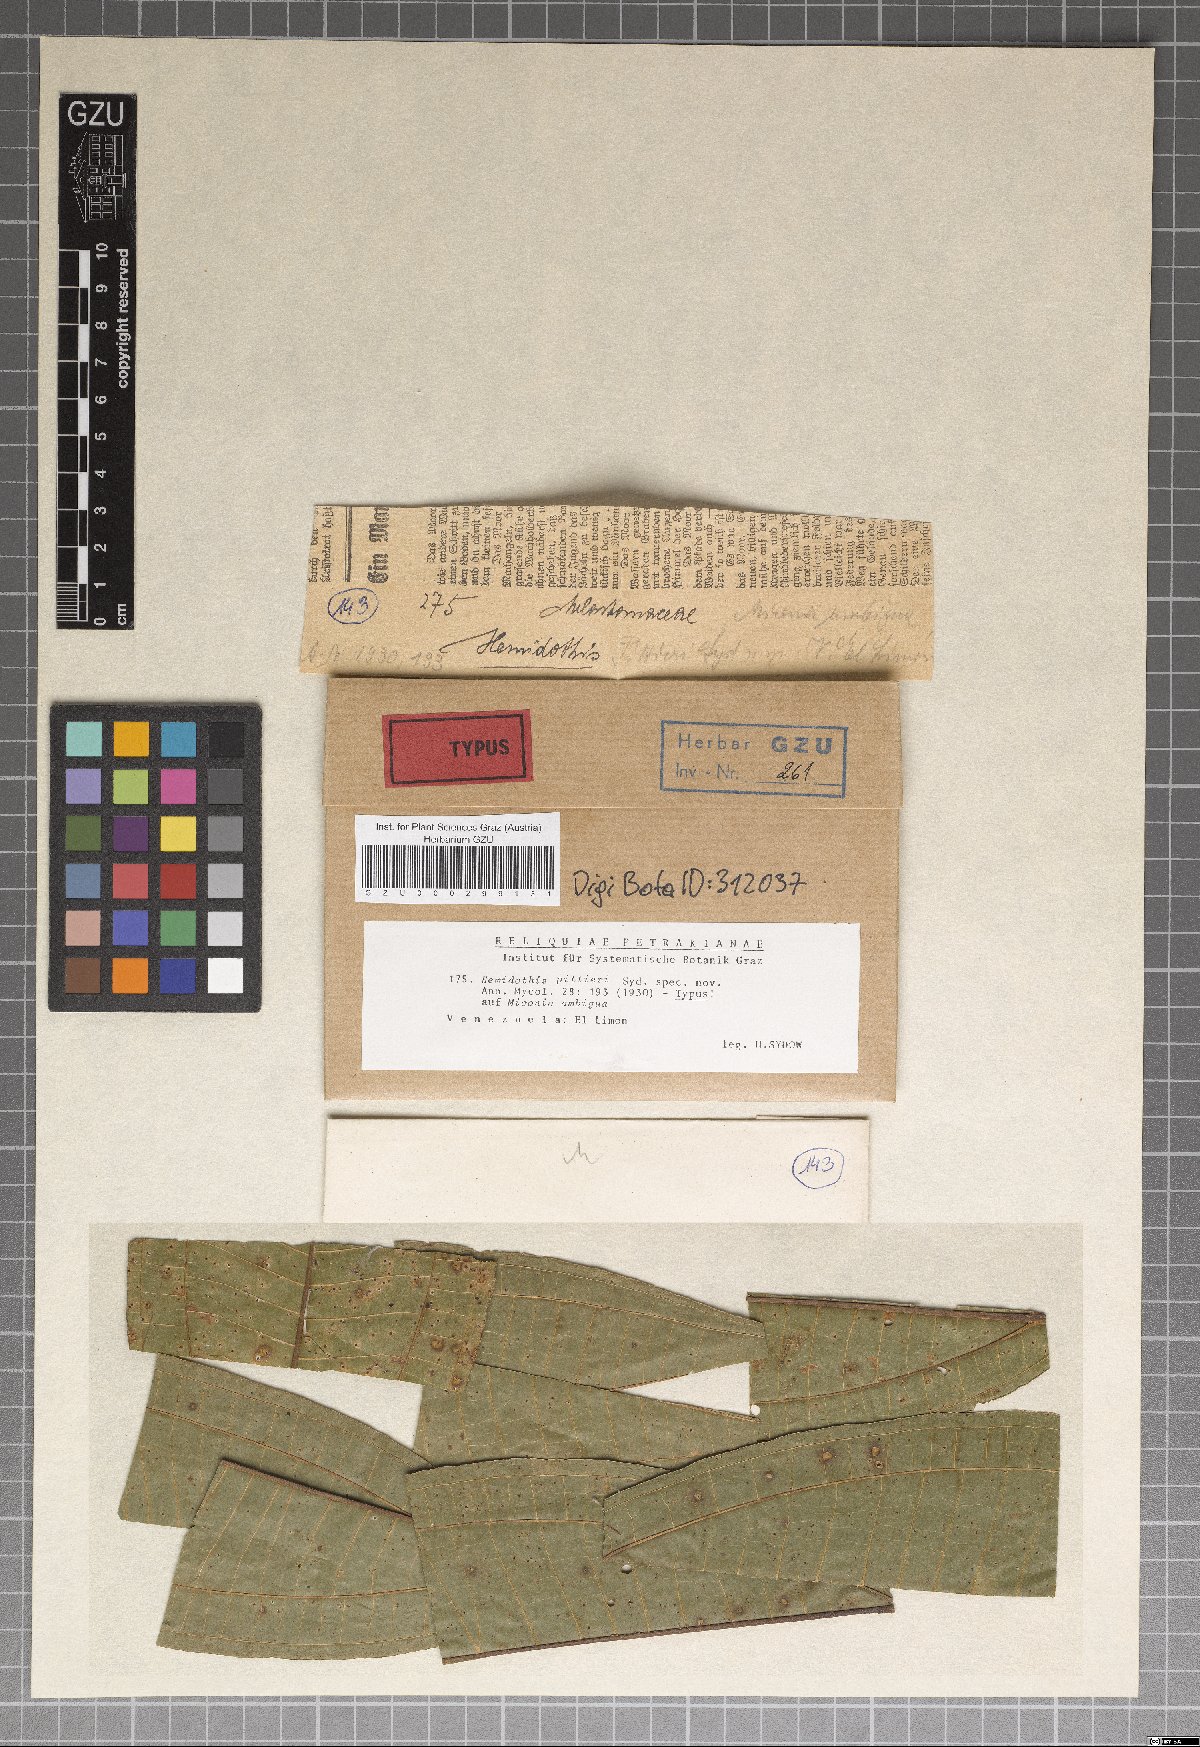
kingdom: Fungi
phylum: Ascomycota
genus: Hemidothis
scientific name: Hemidothis pittieri
